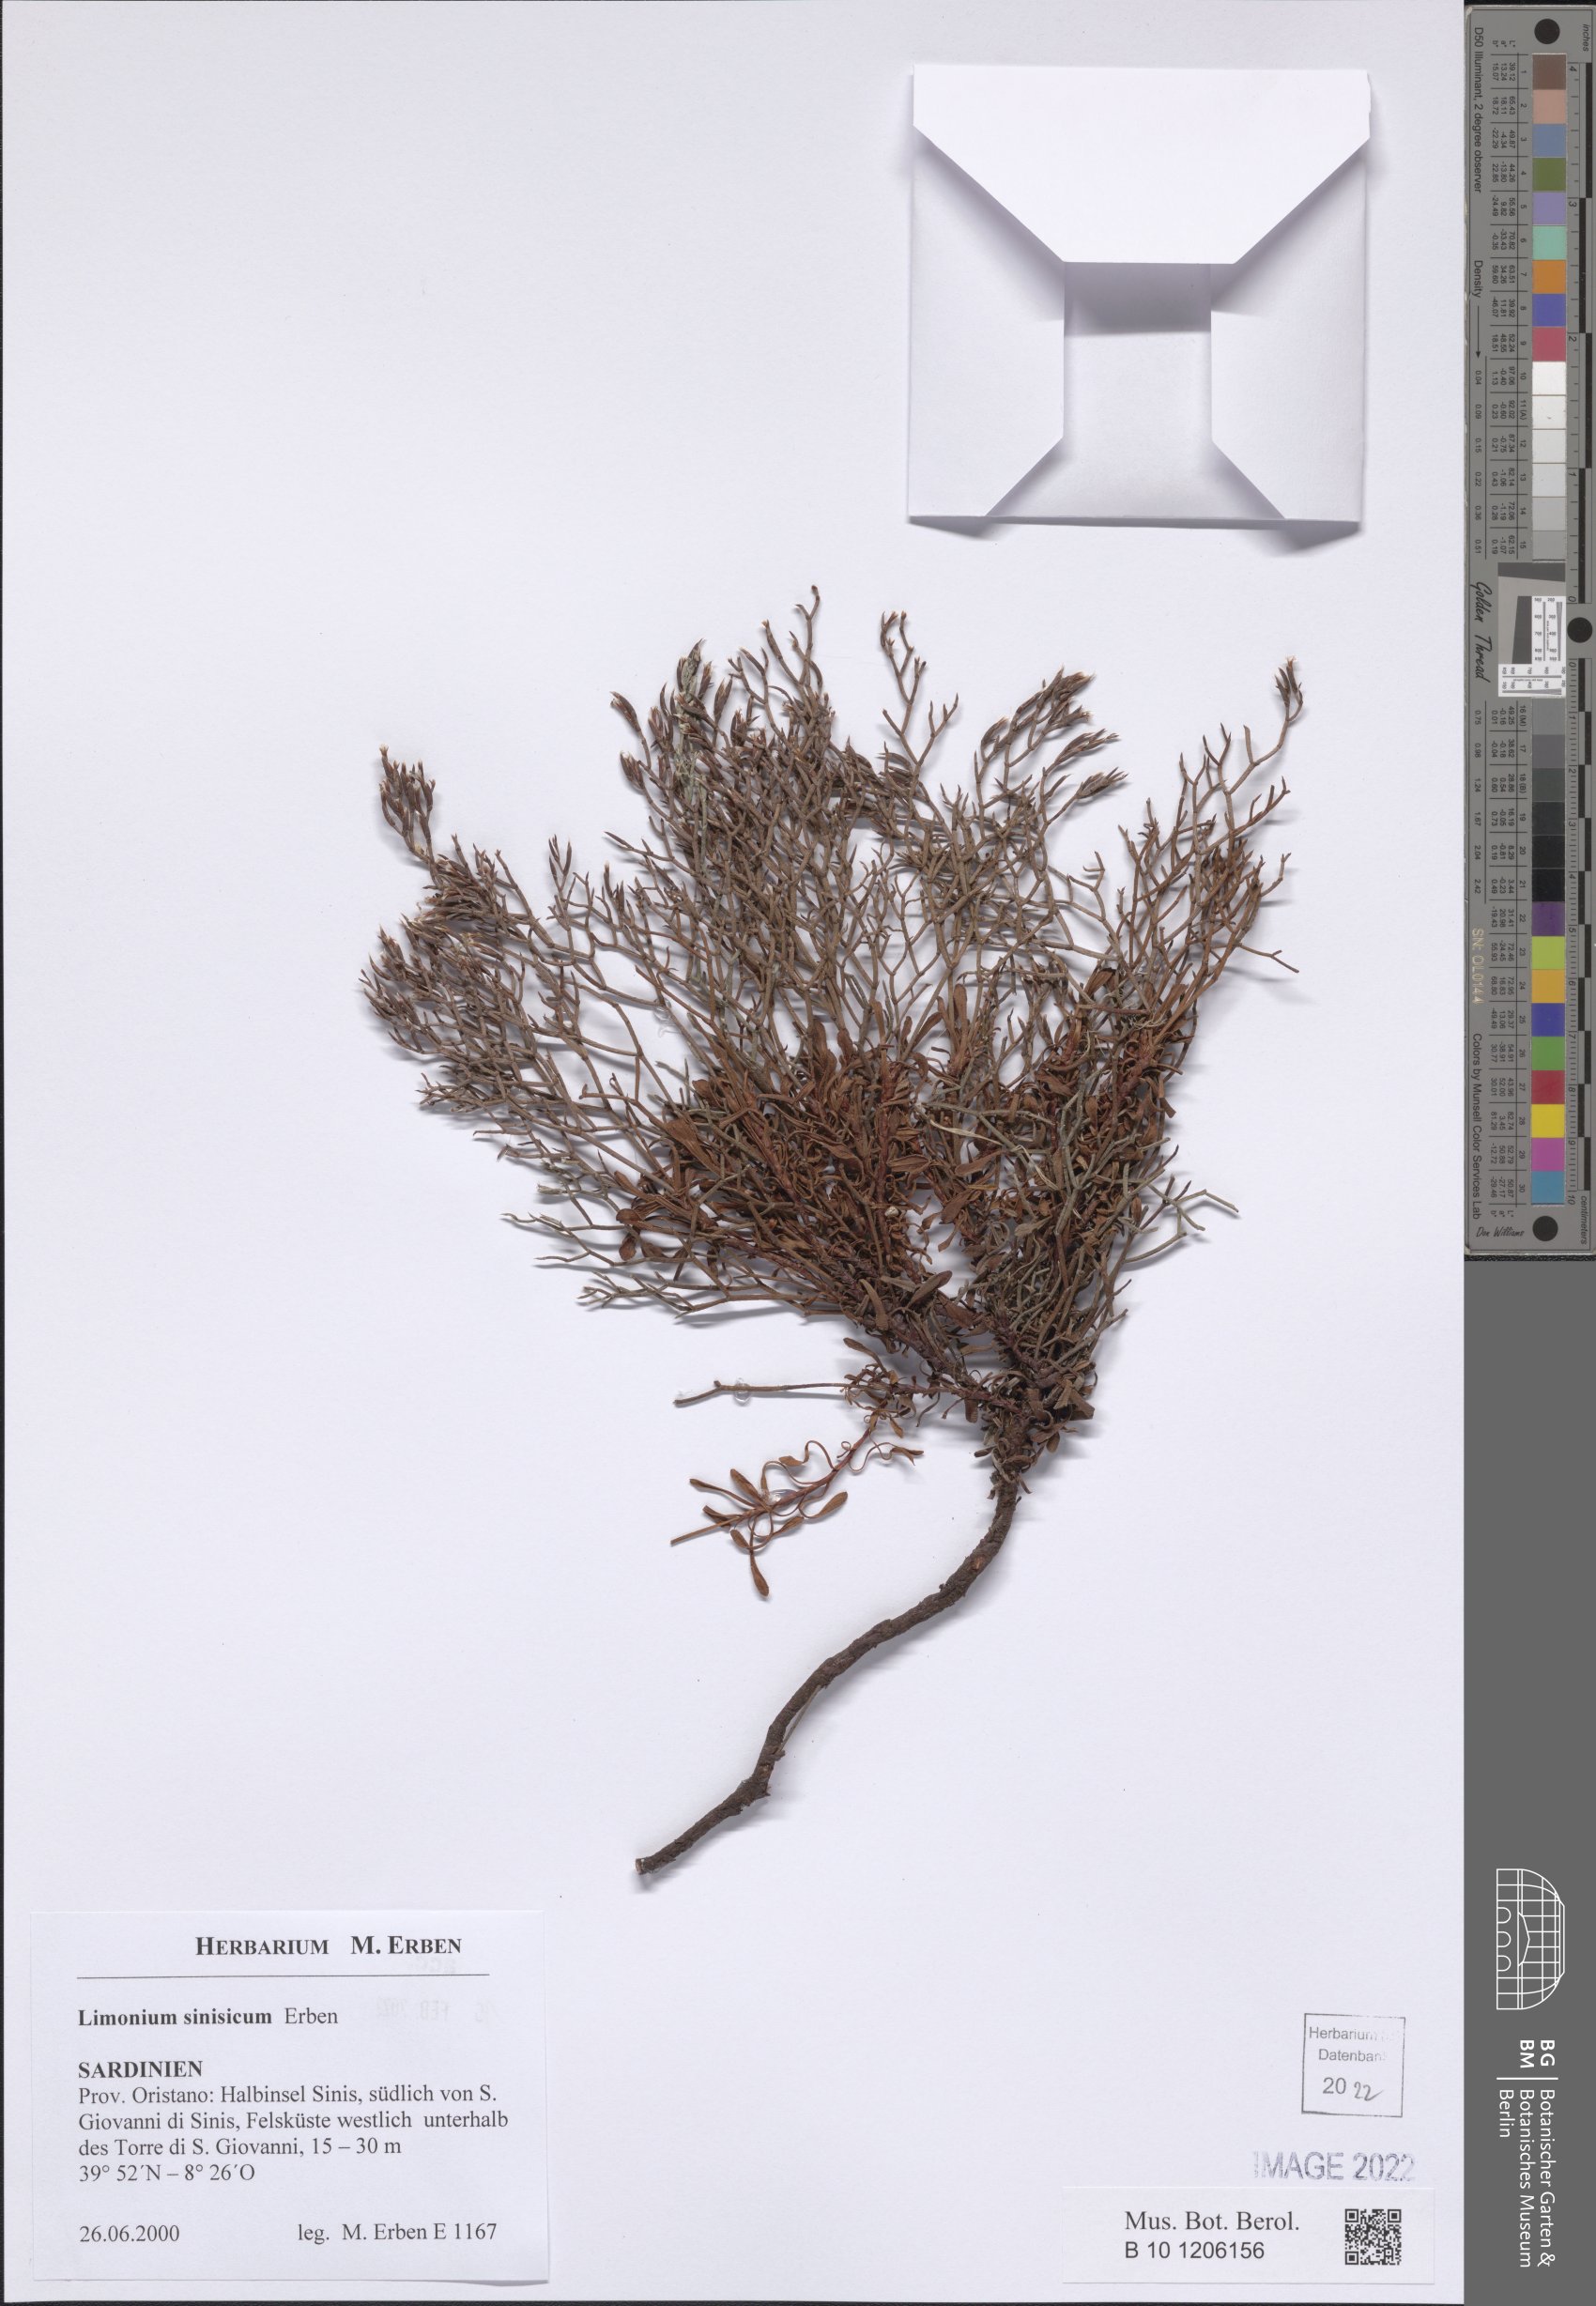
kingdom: Plantae
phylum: Tracheophyta
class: Magnoliopsida
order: Caryophyllales
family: Plumbaginaceae
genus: Limonium
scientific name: Limonium acutifolium
